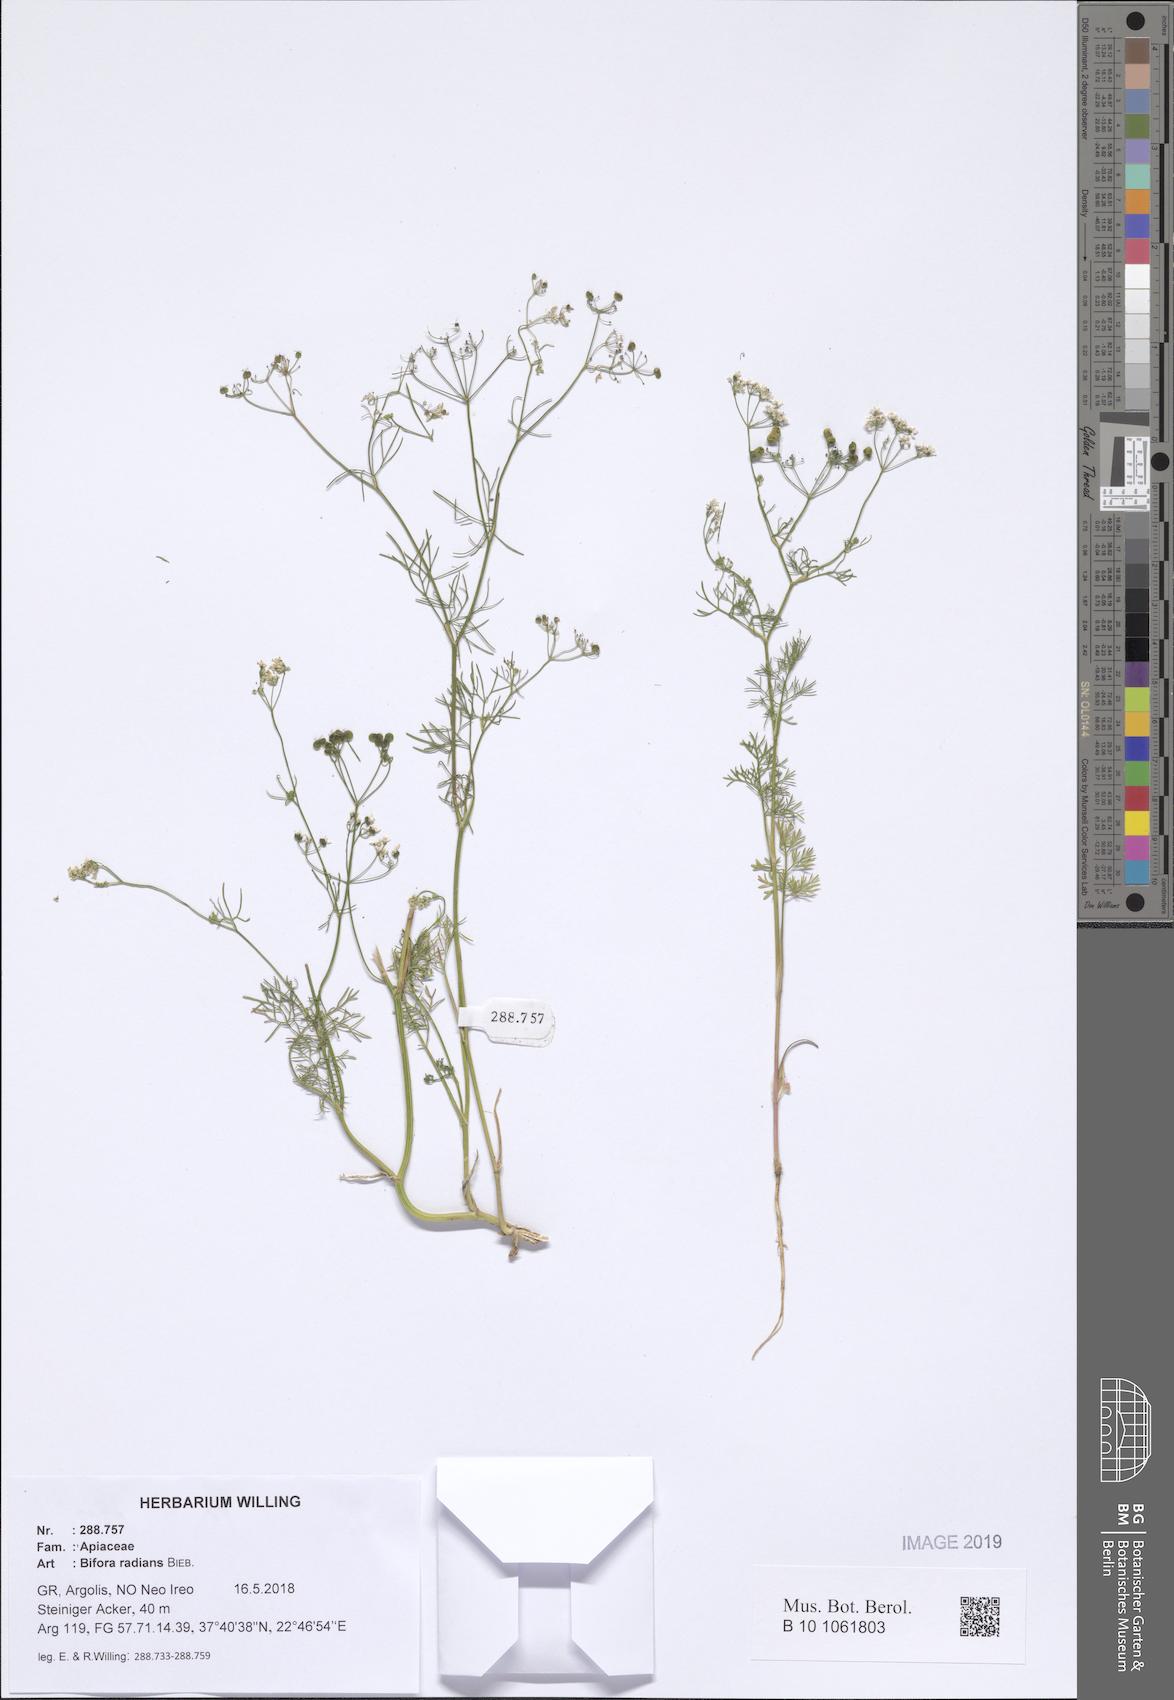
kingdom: Plantae
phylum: Tracheophyta
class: Magnoliopsida
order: Apiales
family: Apiaceae
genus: Bifora
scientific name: Bifora radians
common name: Wild bishop
